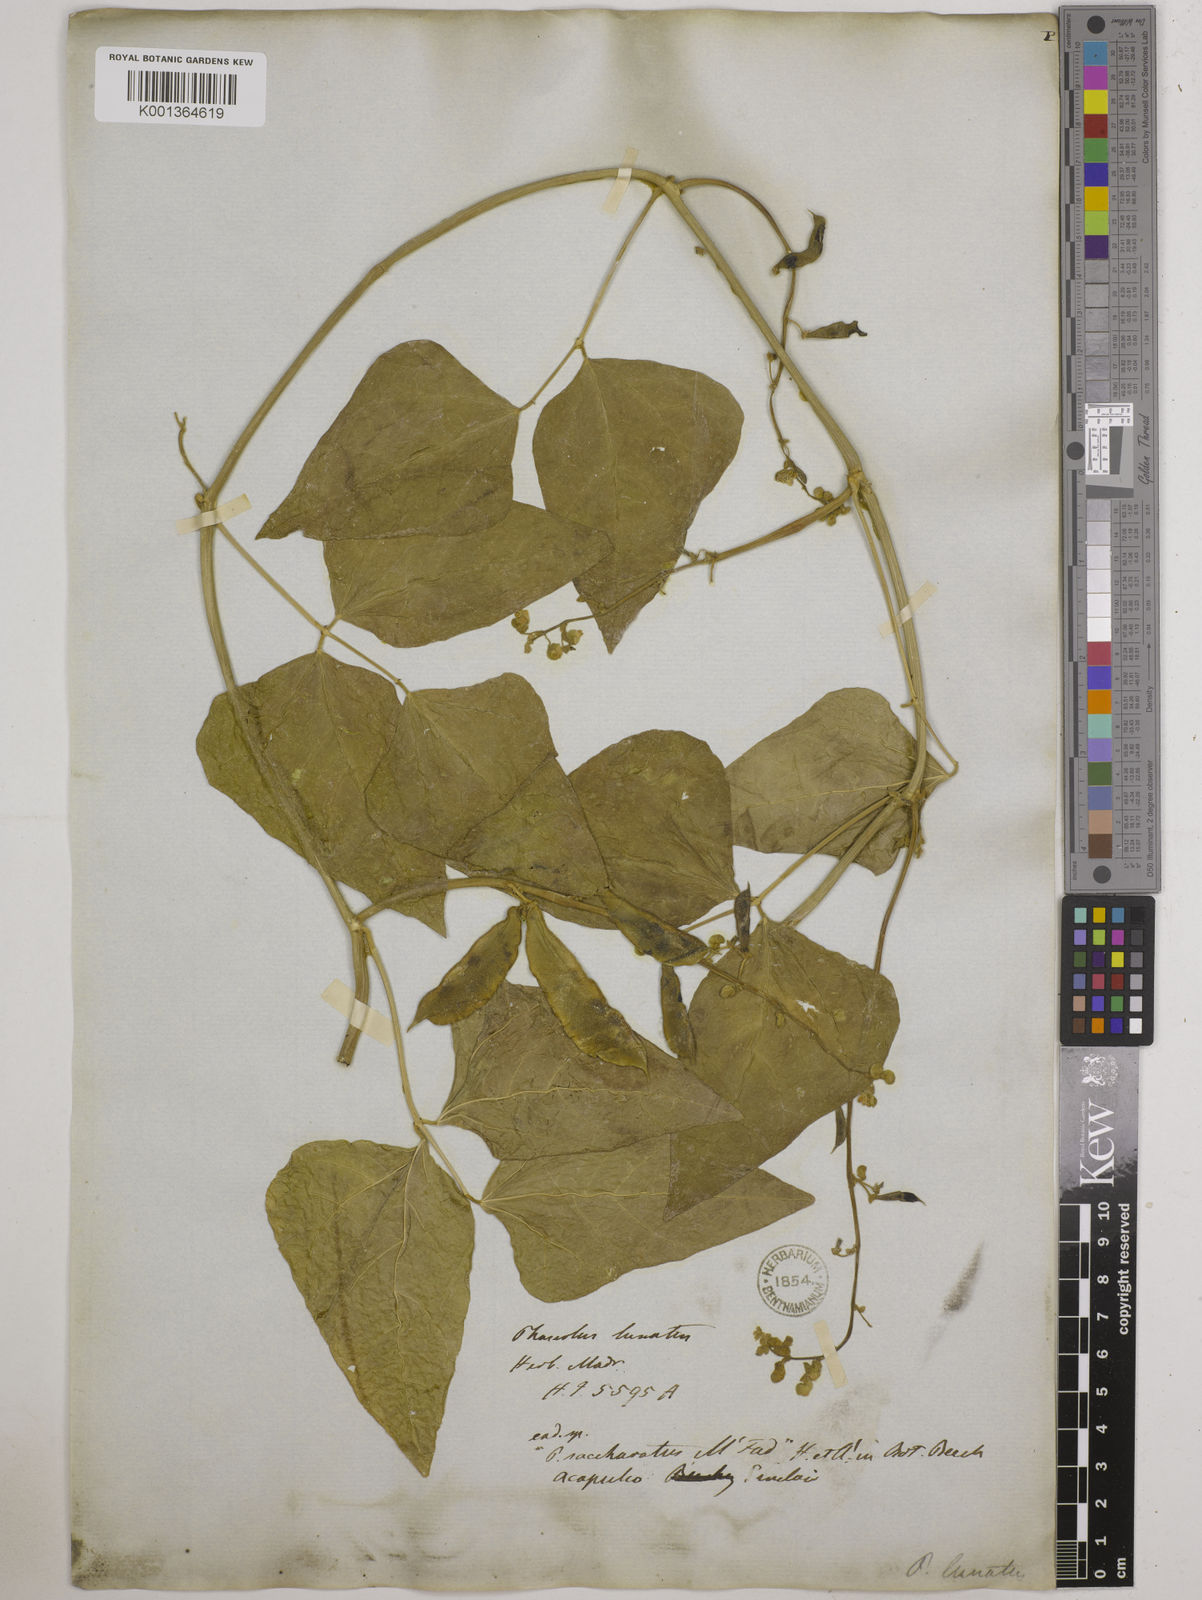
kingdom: Plantae
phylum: Tracheophyta
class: Magnoliopsida
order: Fabales
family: Fabaceae
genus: Phaseolus
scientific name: Phaseolus lunatus
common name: Sieva bean
